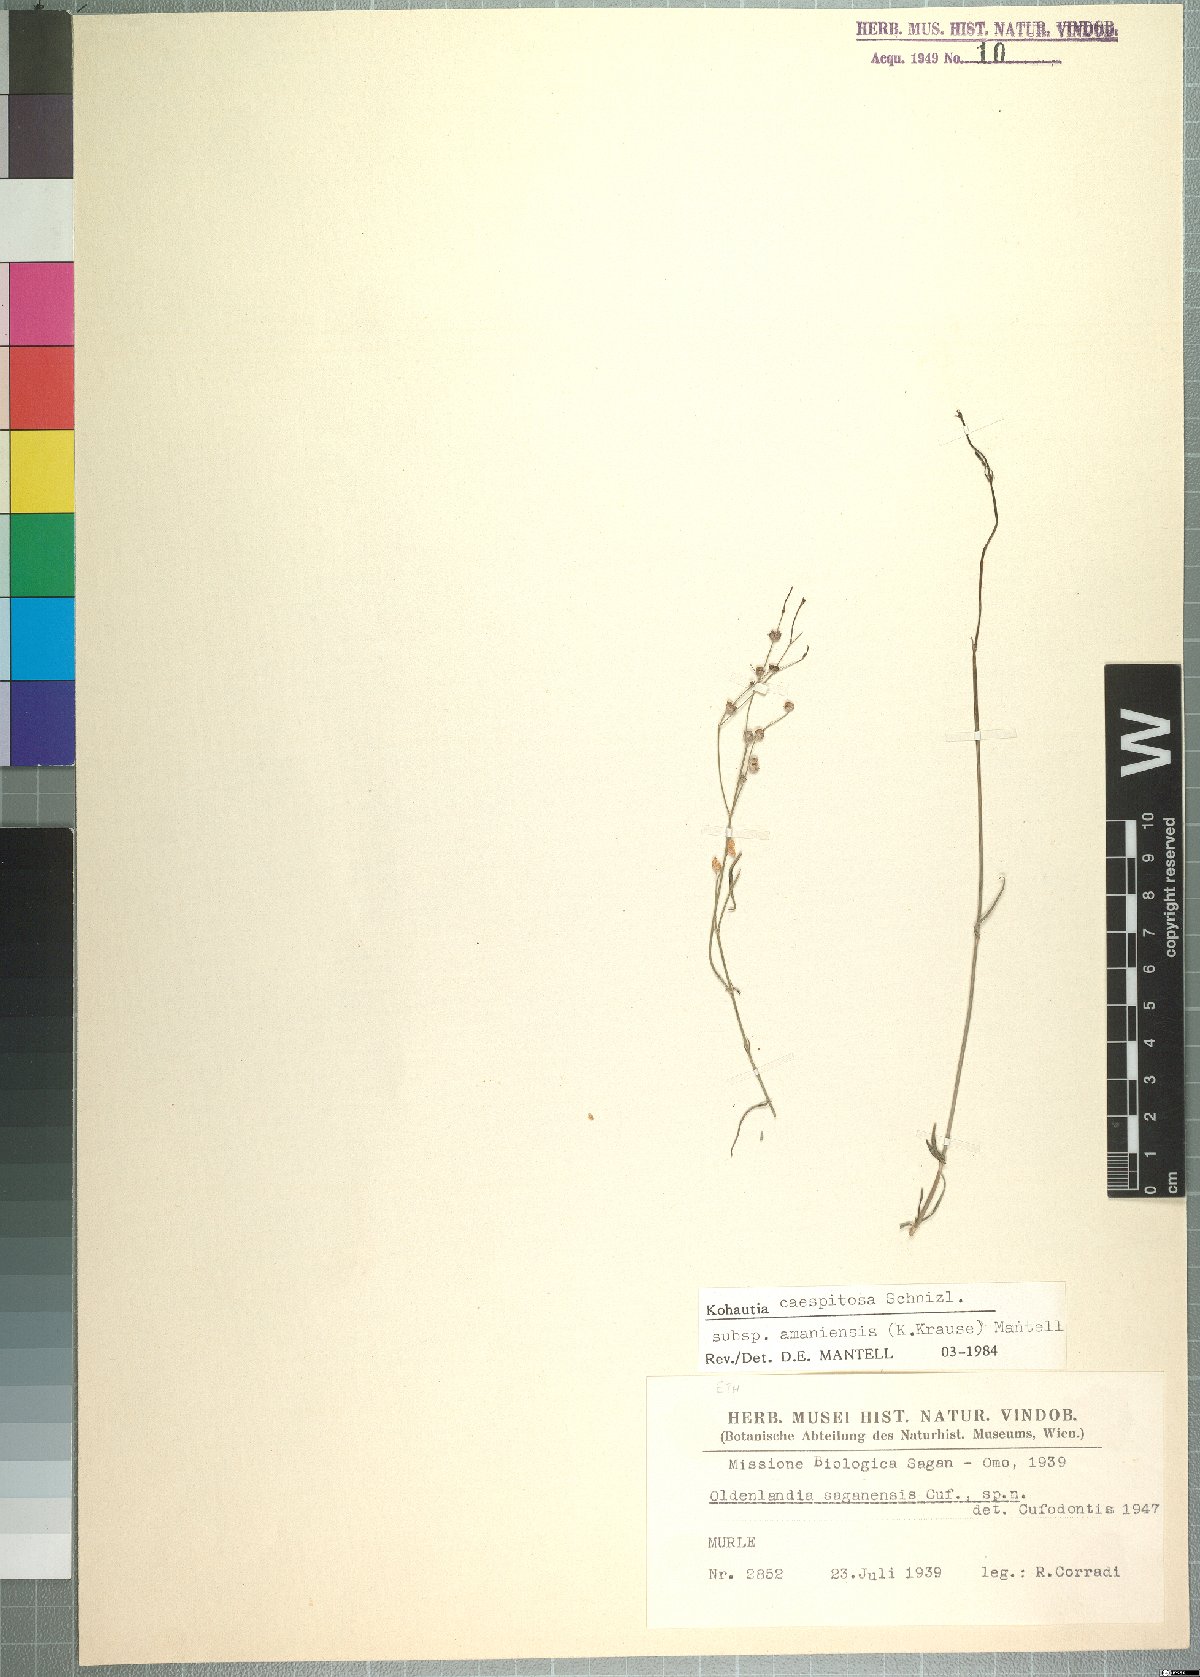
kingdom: Plantae
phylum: Tracheophyta
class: Magnoliopsida
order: Gentianales
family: Rubiaceae
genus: Kohautia
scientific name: Kohautia caespitosa
